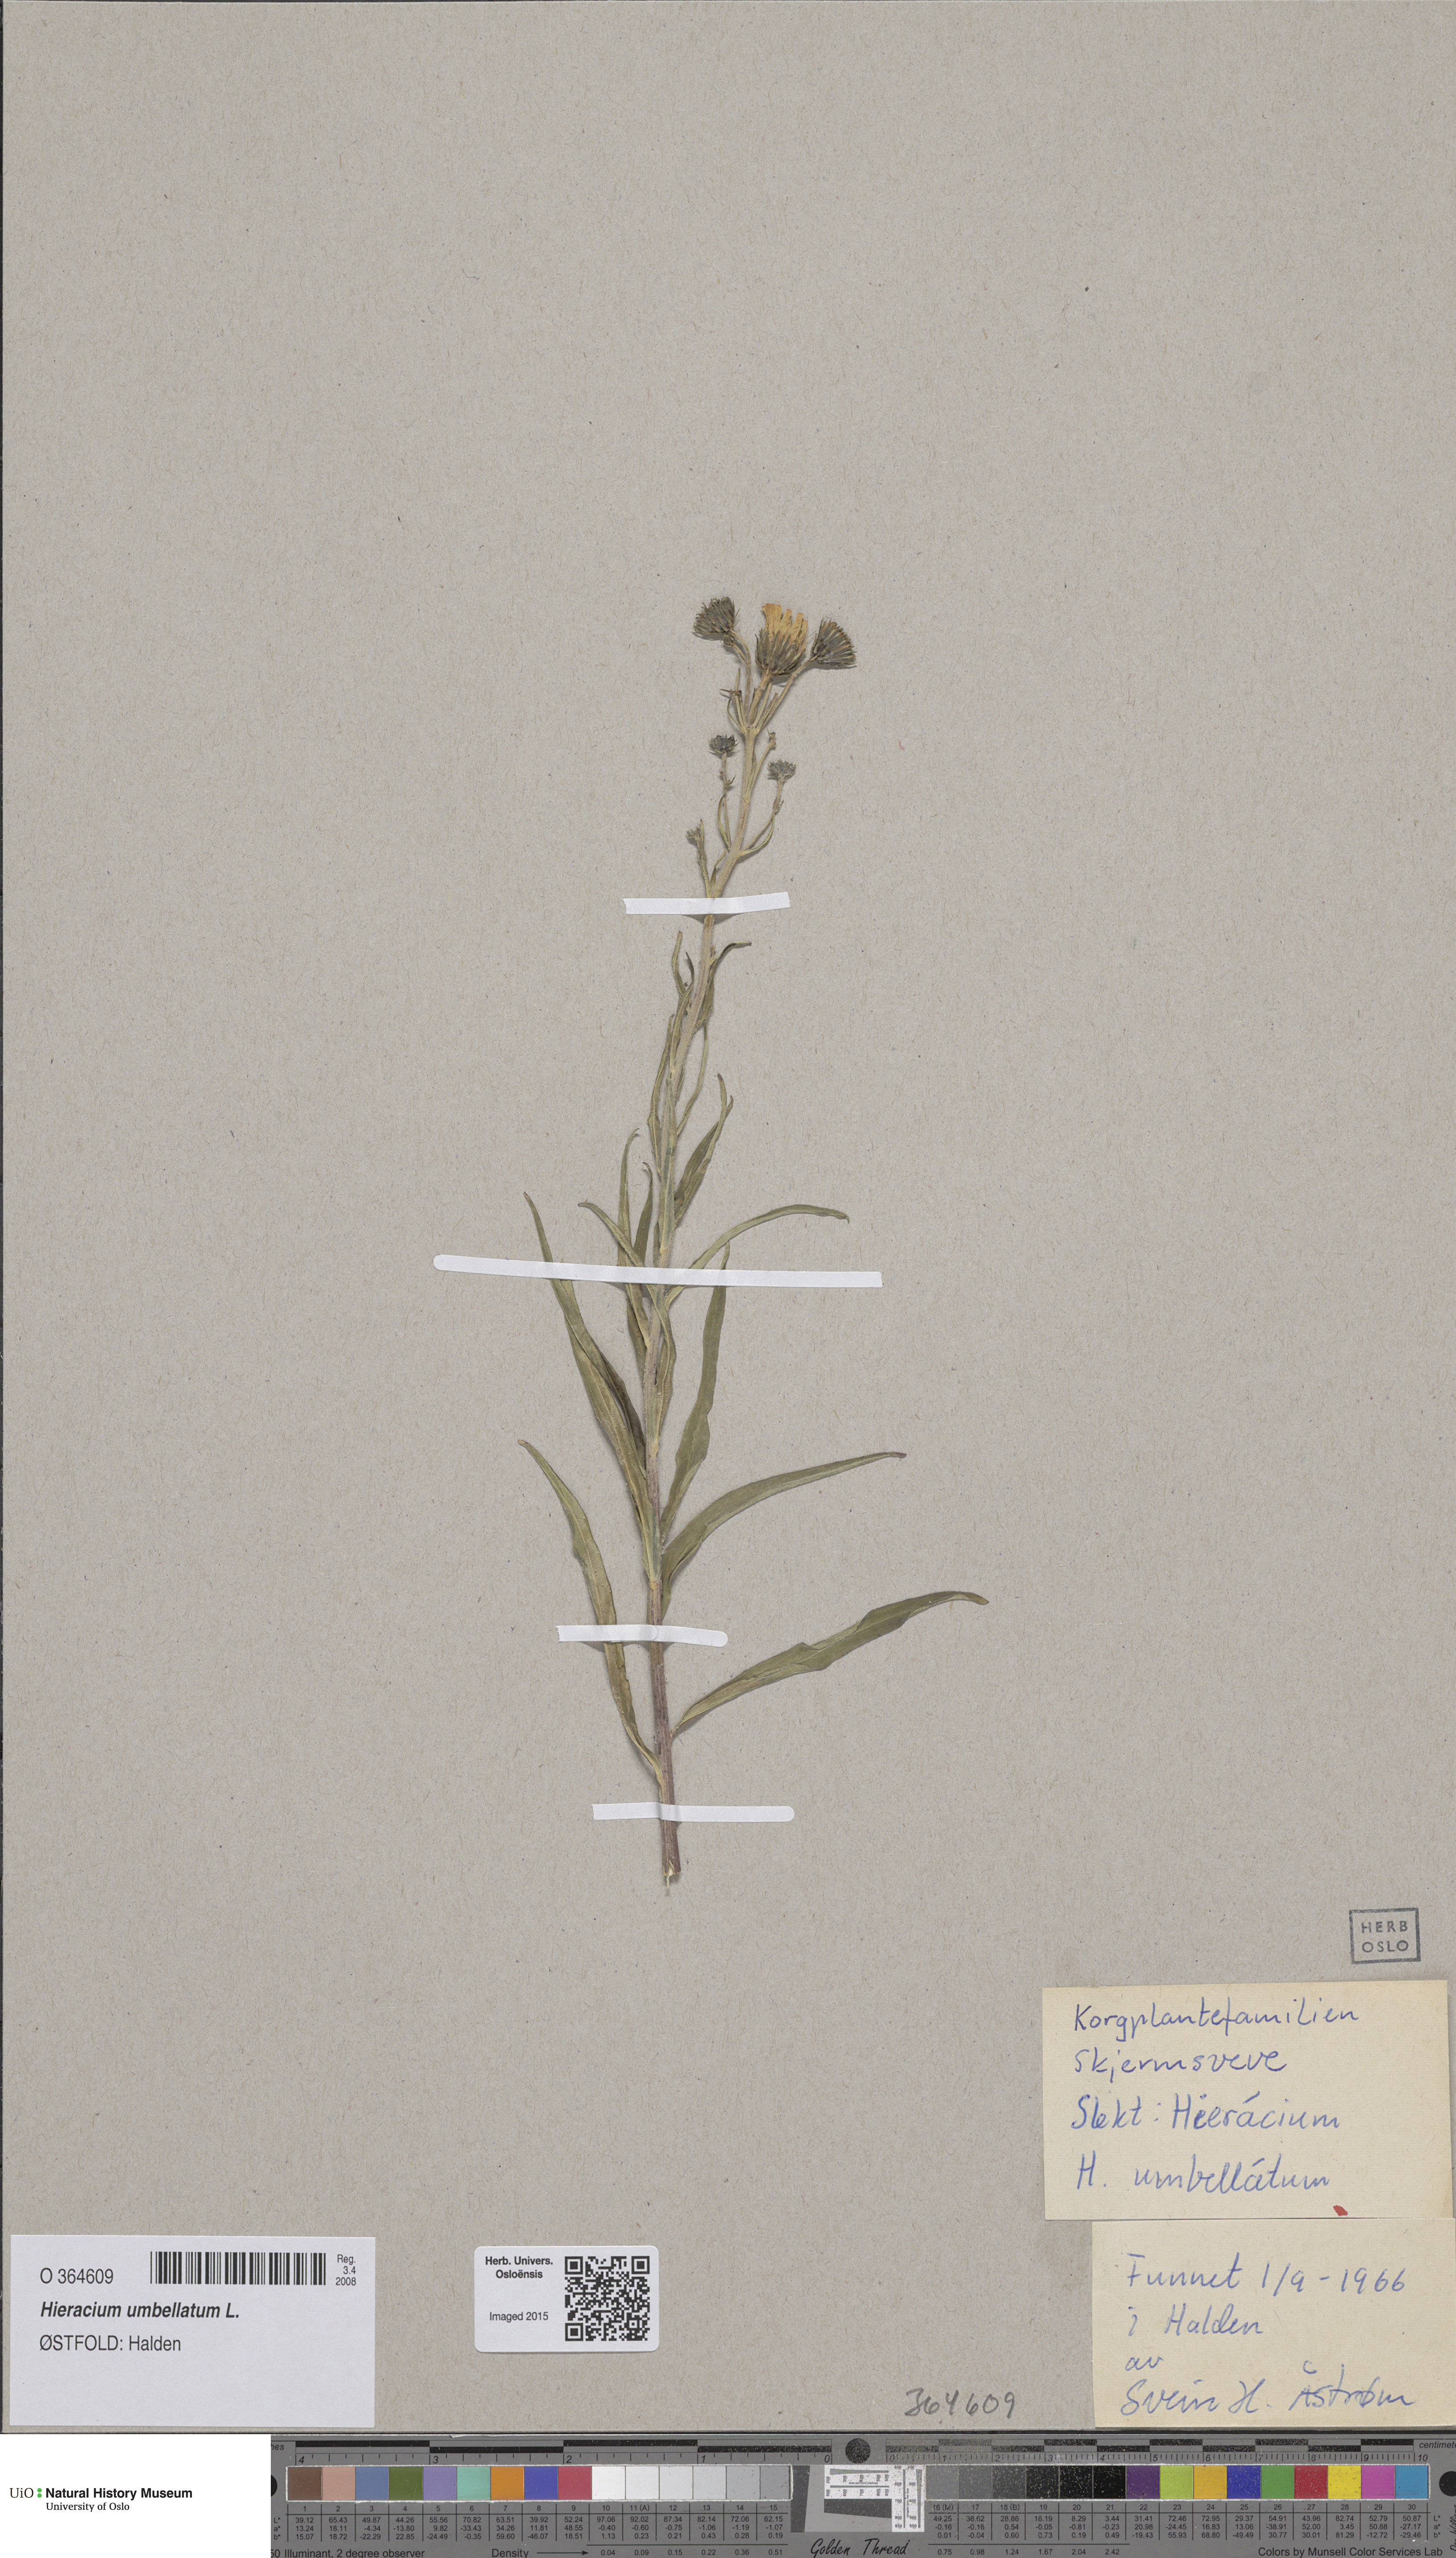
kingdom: Plantae
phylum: Tracheophyta
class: Magnoliopsida
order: Asterales
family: Asteraceae
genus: Hieracium
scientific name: Hieracium umbellatum
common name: Northern hawkweed
